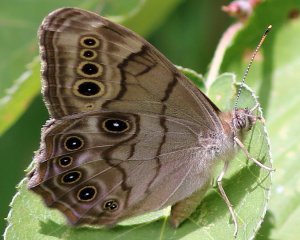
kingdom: Animalia
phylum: Arthropoda
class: Insecta
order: Lepidoptera
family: Nymphalidae
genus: Lethe
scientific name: Lethe anthedon
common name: Northern Pearly-Eye
